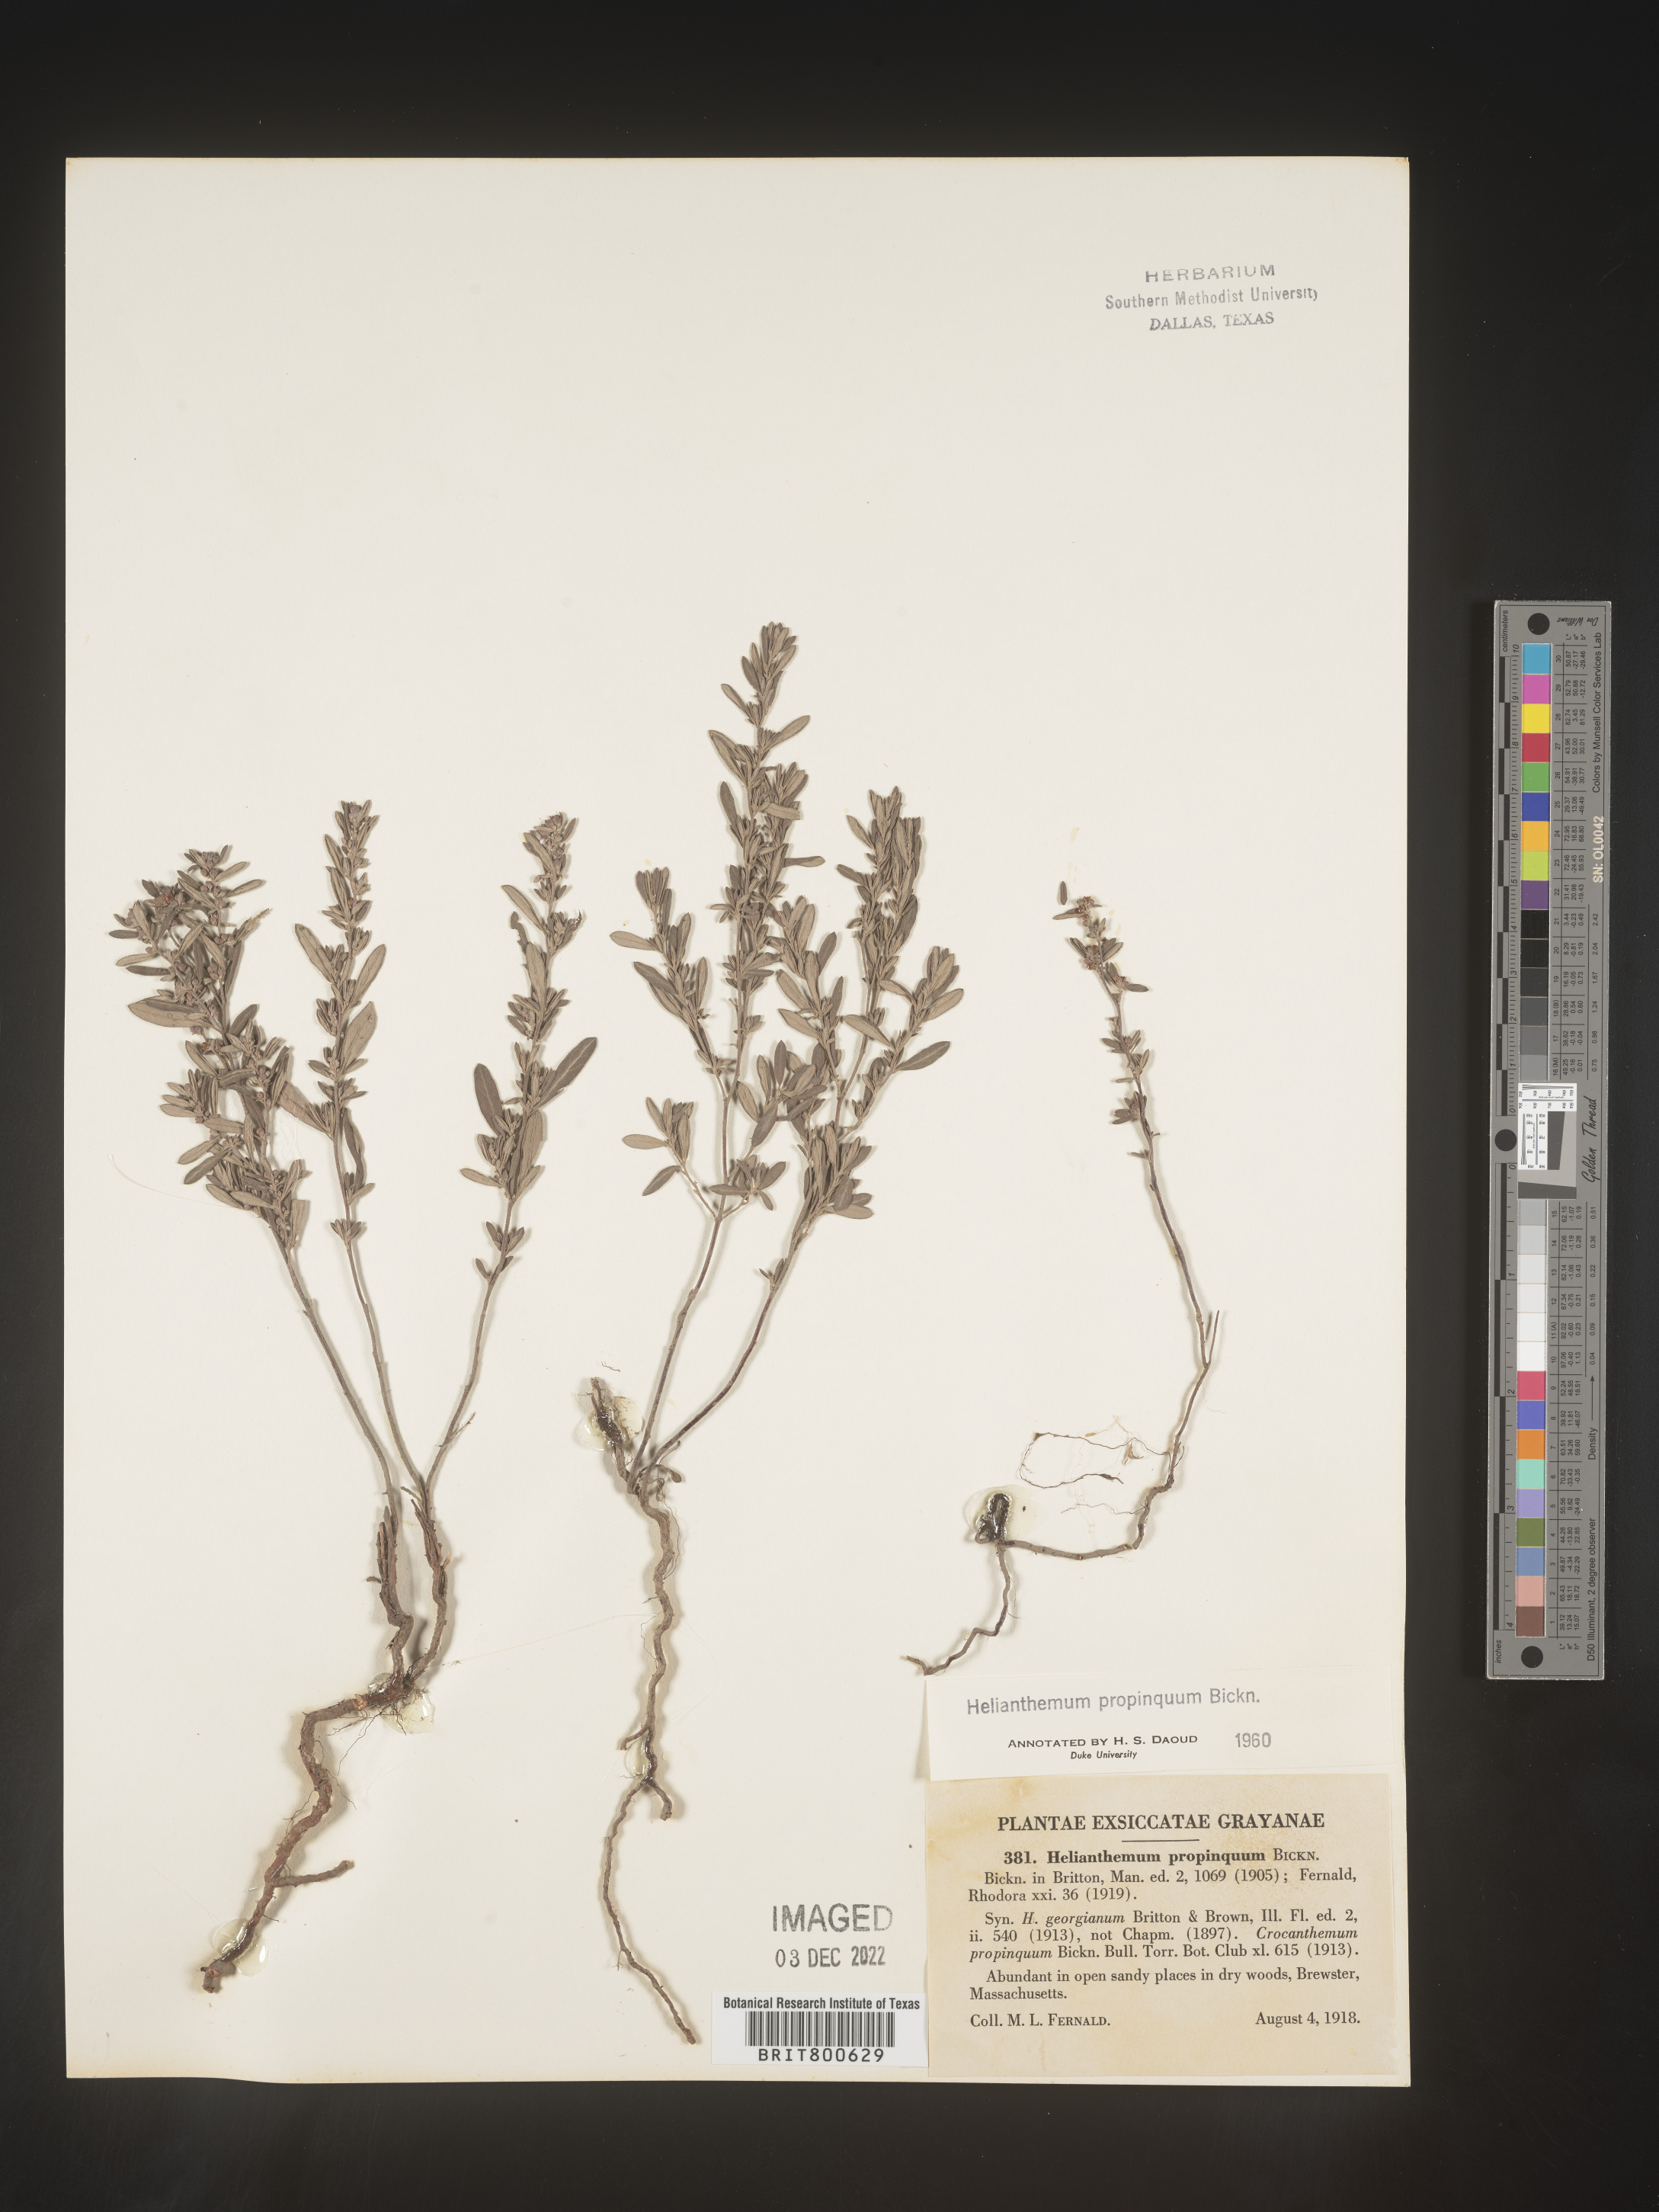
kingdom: Plantae
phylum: Tracheophyta
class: Magnoliopsida
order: Malvales
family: Cistaceae
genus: Helianthemum
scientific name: Helianthemum
